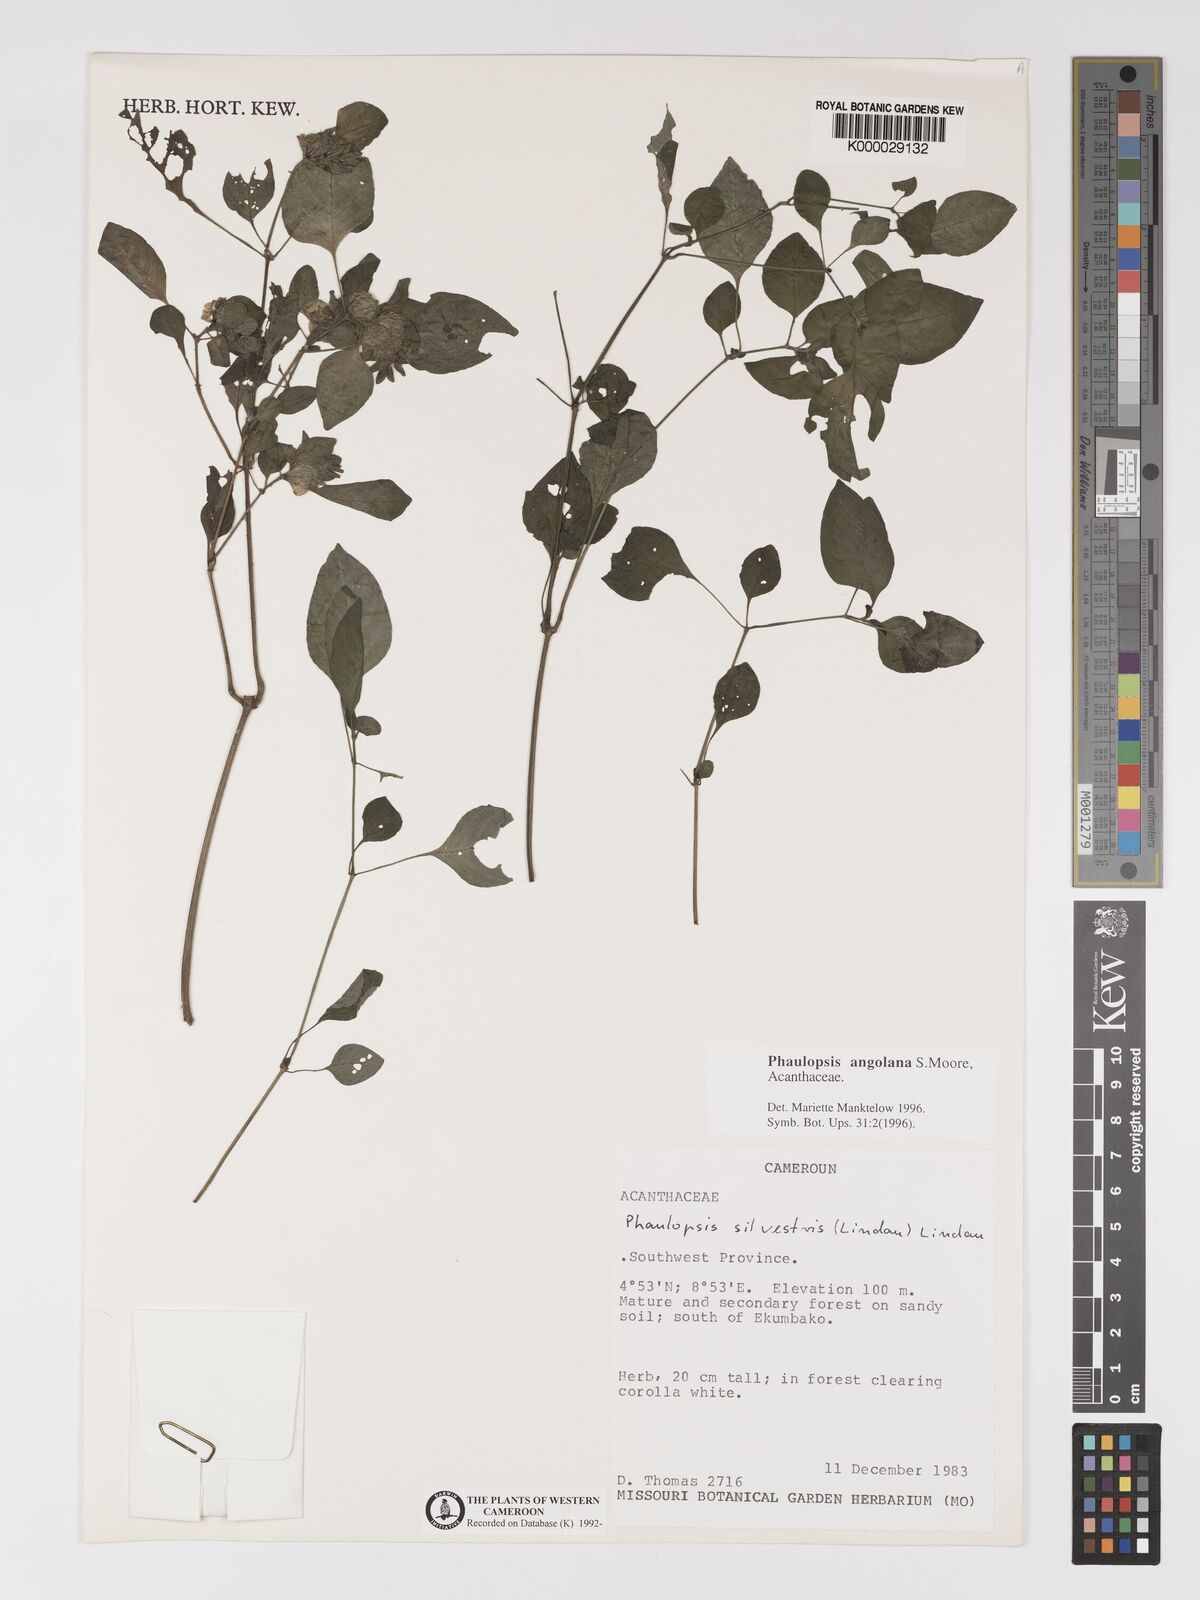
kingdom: Plantae
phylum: Tracheophyta
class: Magnoliopsida
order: Lamiales
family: Acanthaceae
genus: Phaulopsis
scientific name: Phaulopsis angolana
